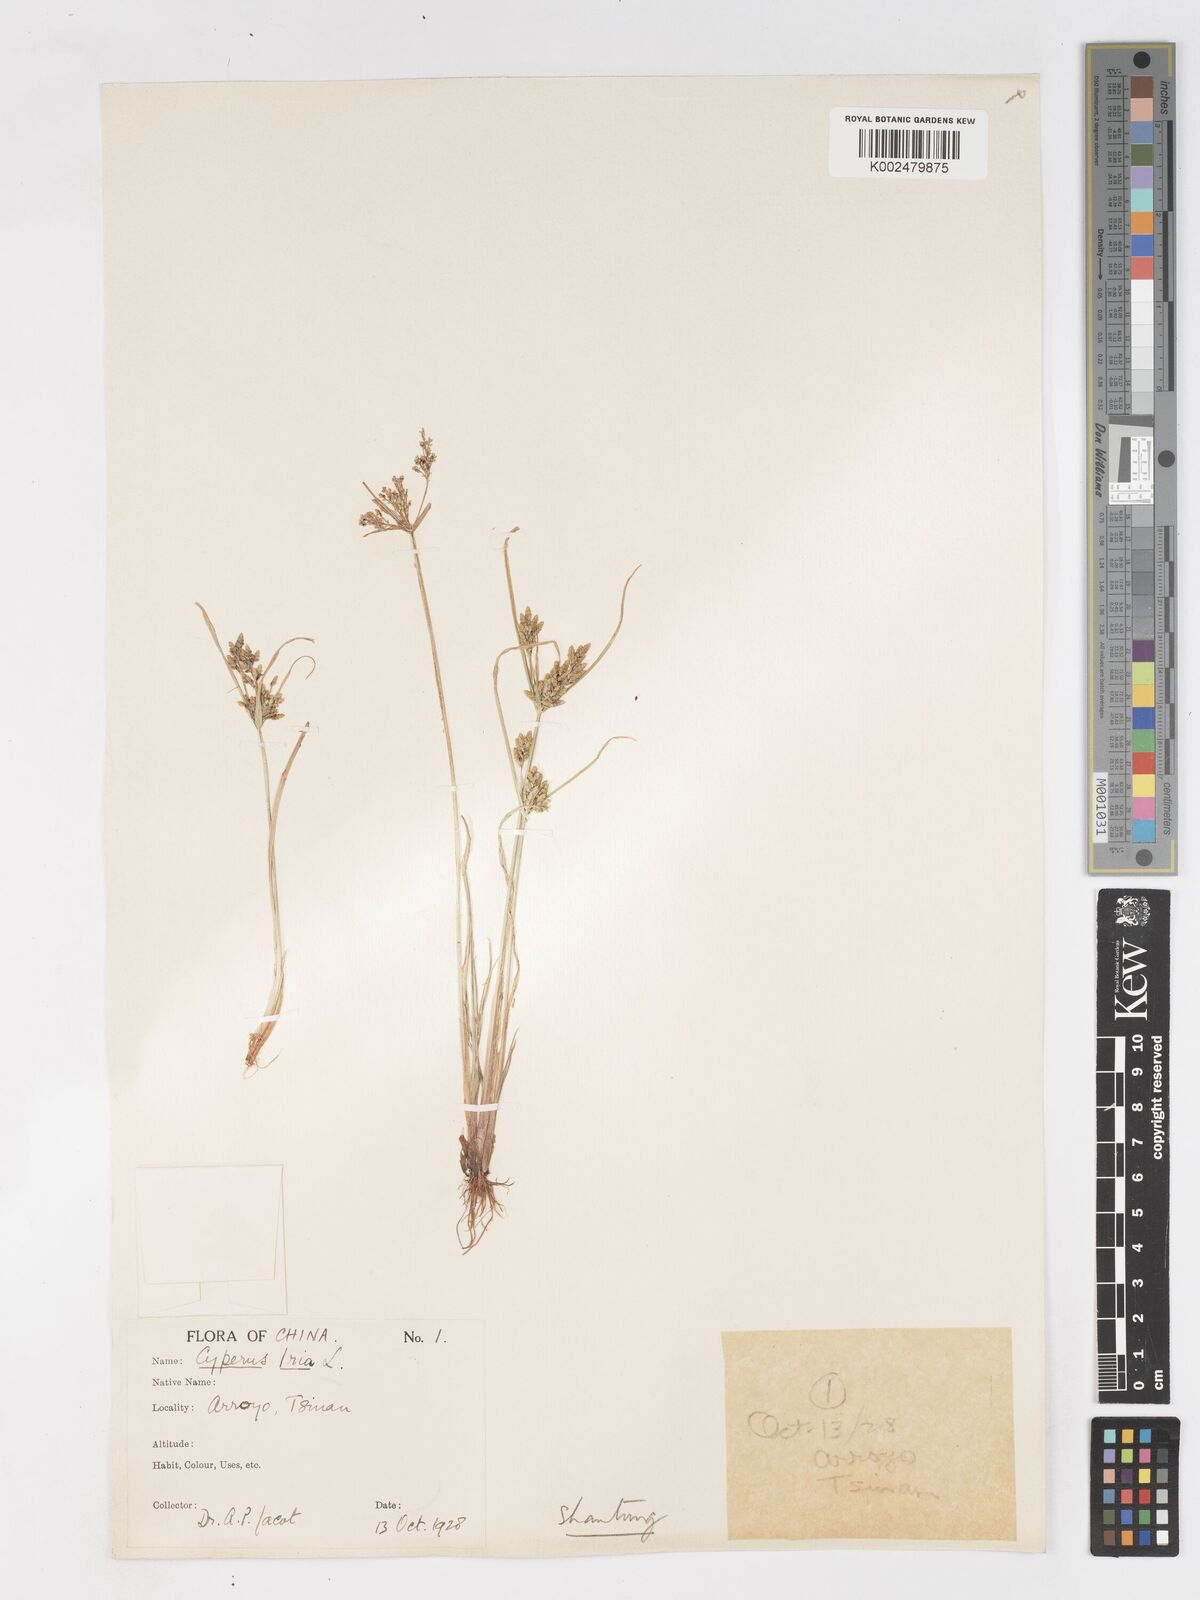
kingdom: Plantae
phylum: Tracheophyta
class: Liliopsida
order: Poales
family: Cyperaceae
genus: Cyperus
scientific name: Cyperus iria
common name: Ricefield flatsedge
